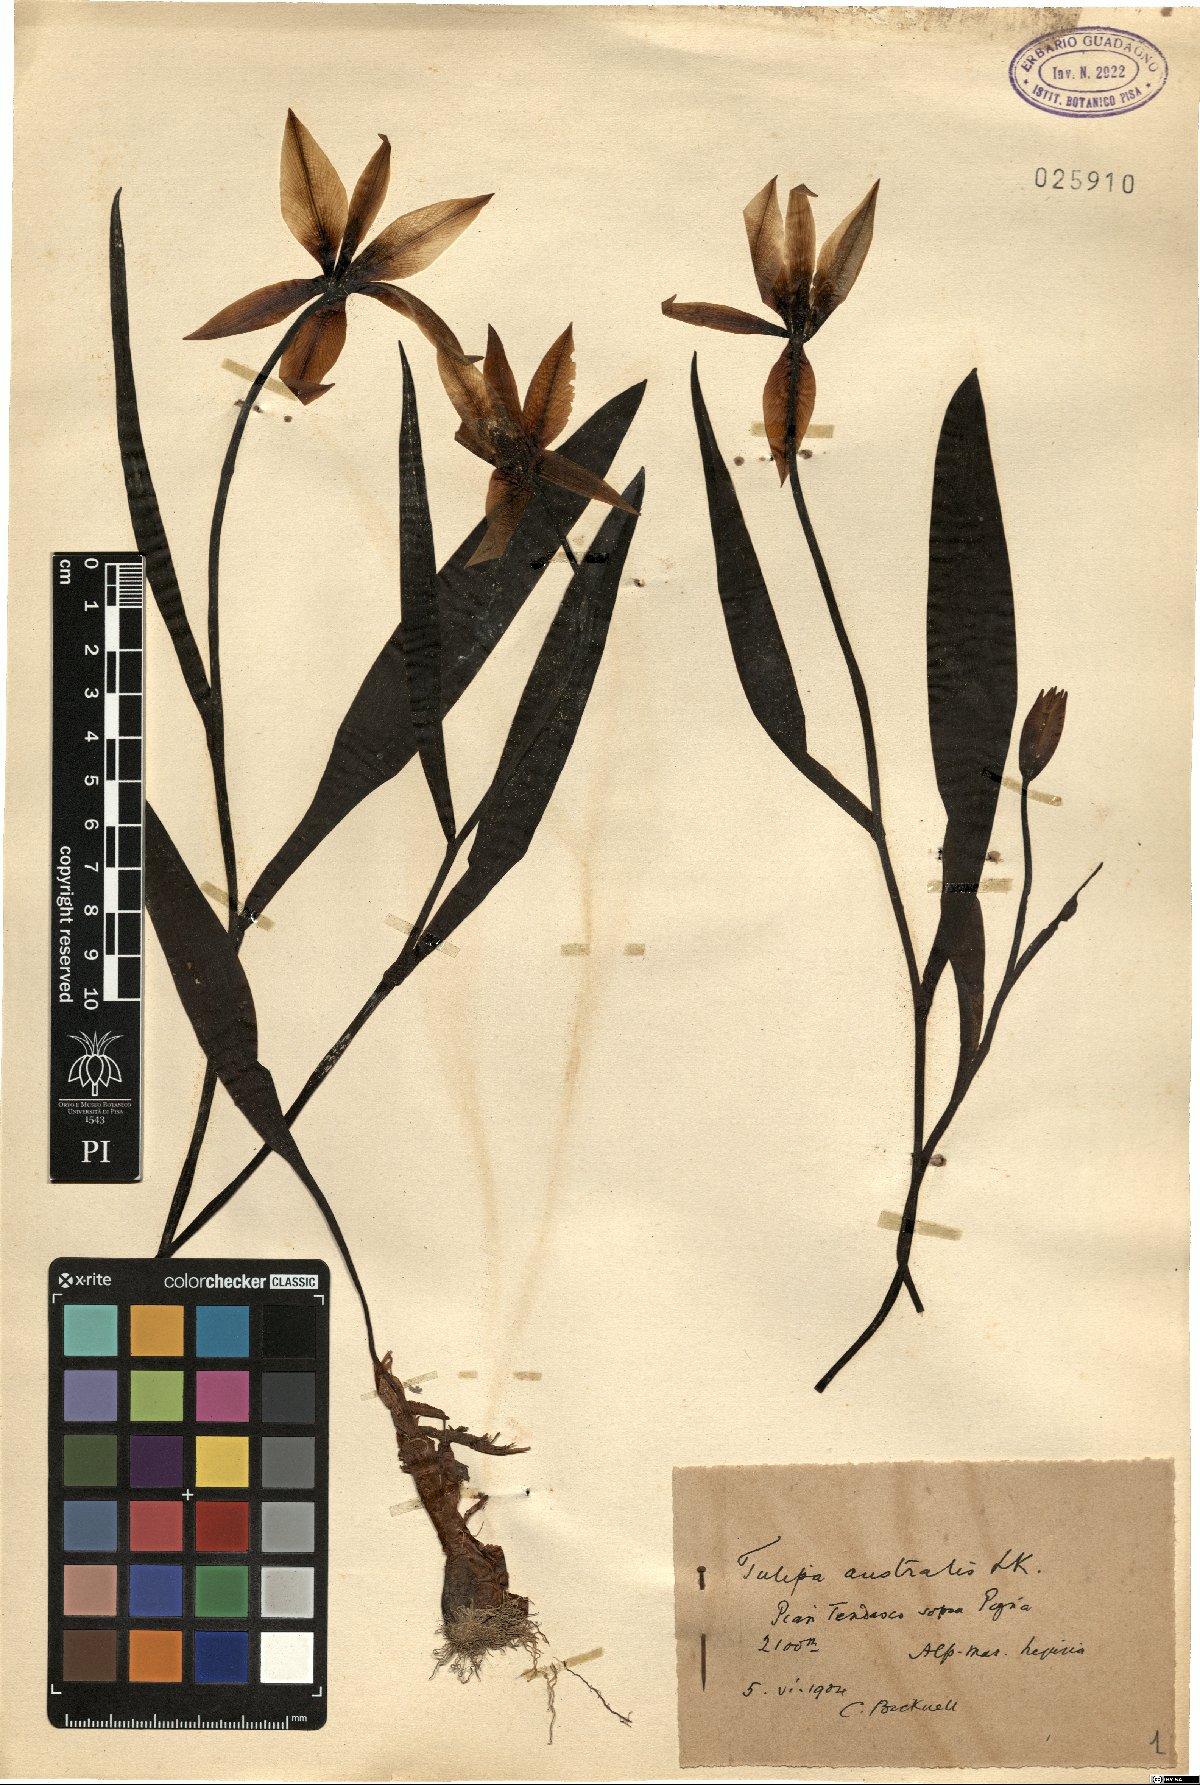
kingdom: Plantae
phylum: Tracheophyta
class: Liliopsida
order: Liliales
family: Liliaceae
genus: Tulipa
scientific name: Tulipa sylvestris
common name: Wild tulip
